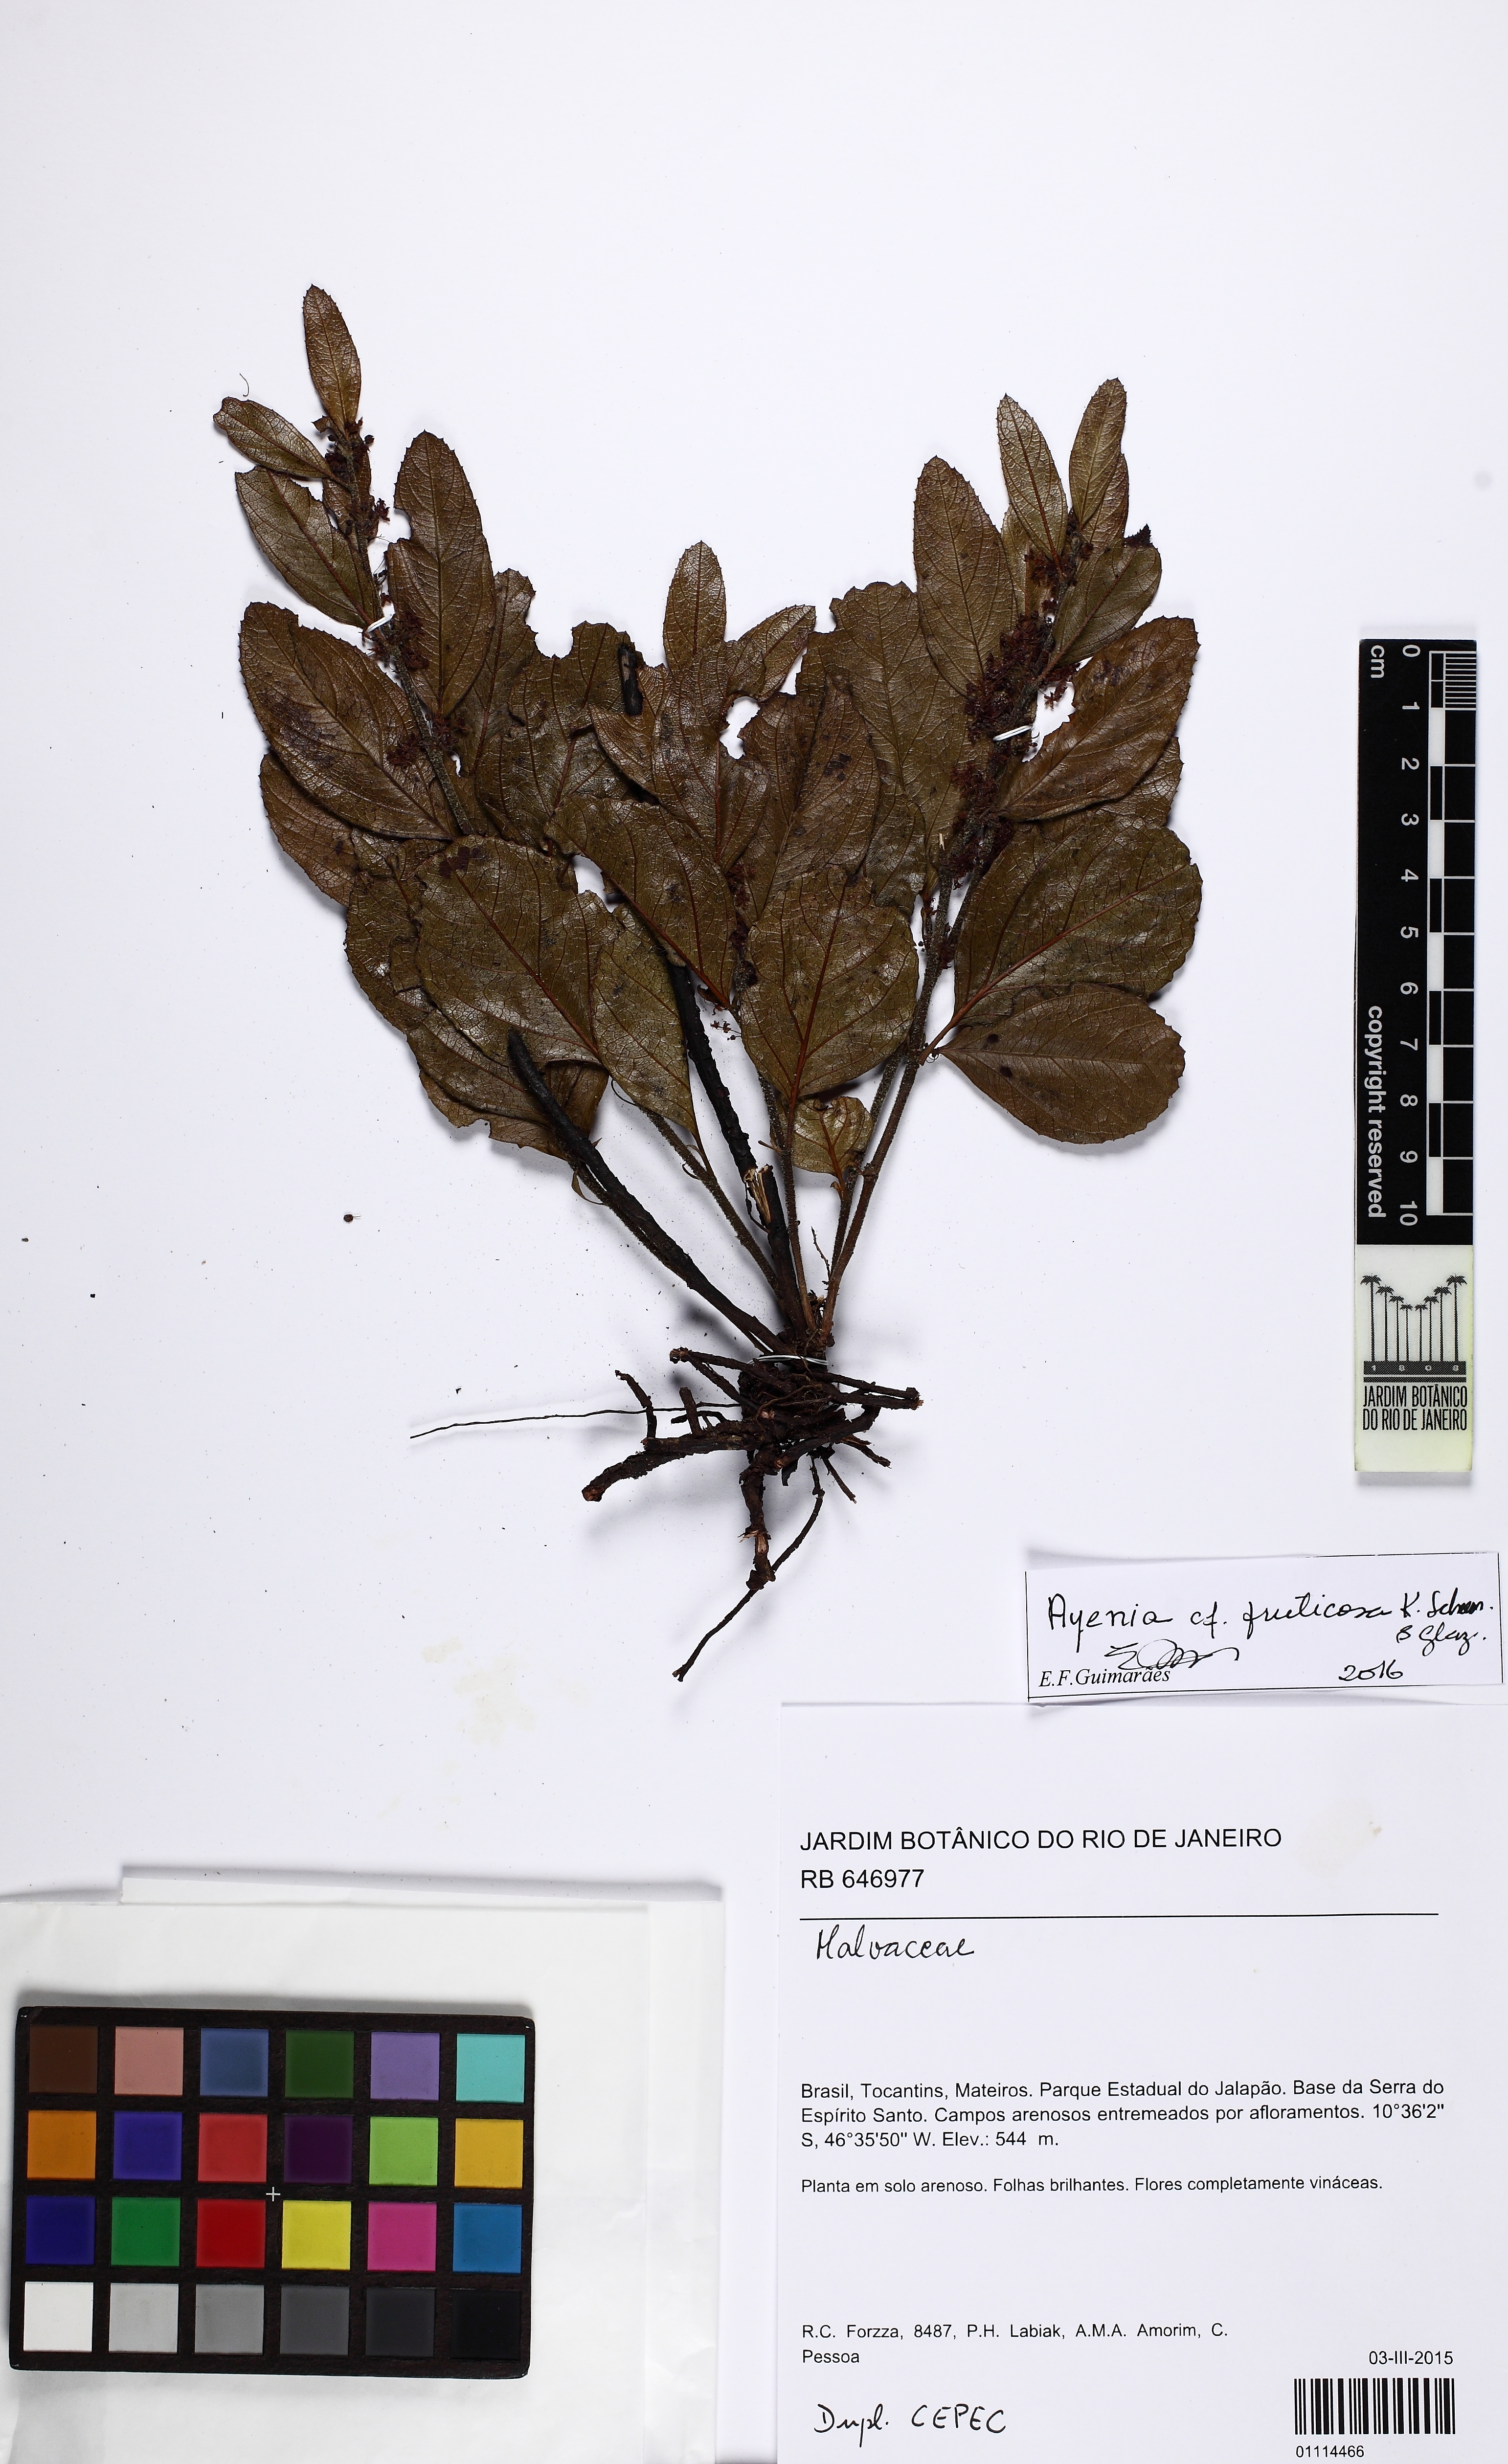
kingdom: Plantae
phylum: Tracheophyta
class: Magnoliopsida
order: Malvales
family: Malvaceae
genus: Ayenia
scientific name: Ayenia fruticosa
